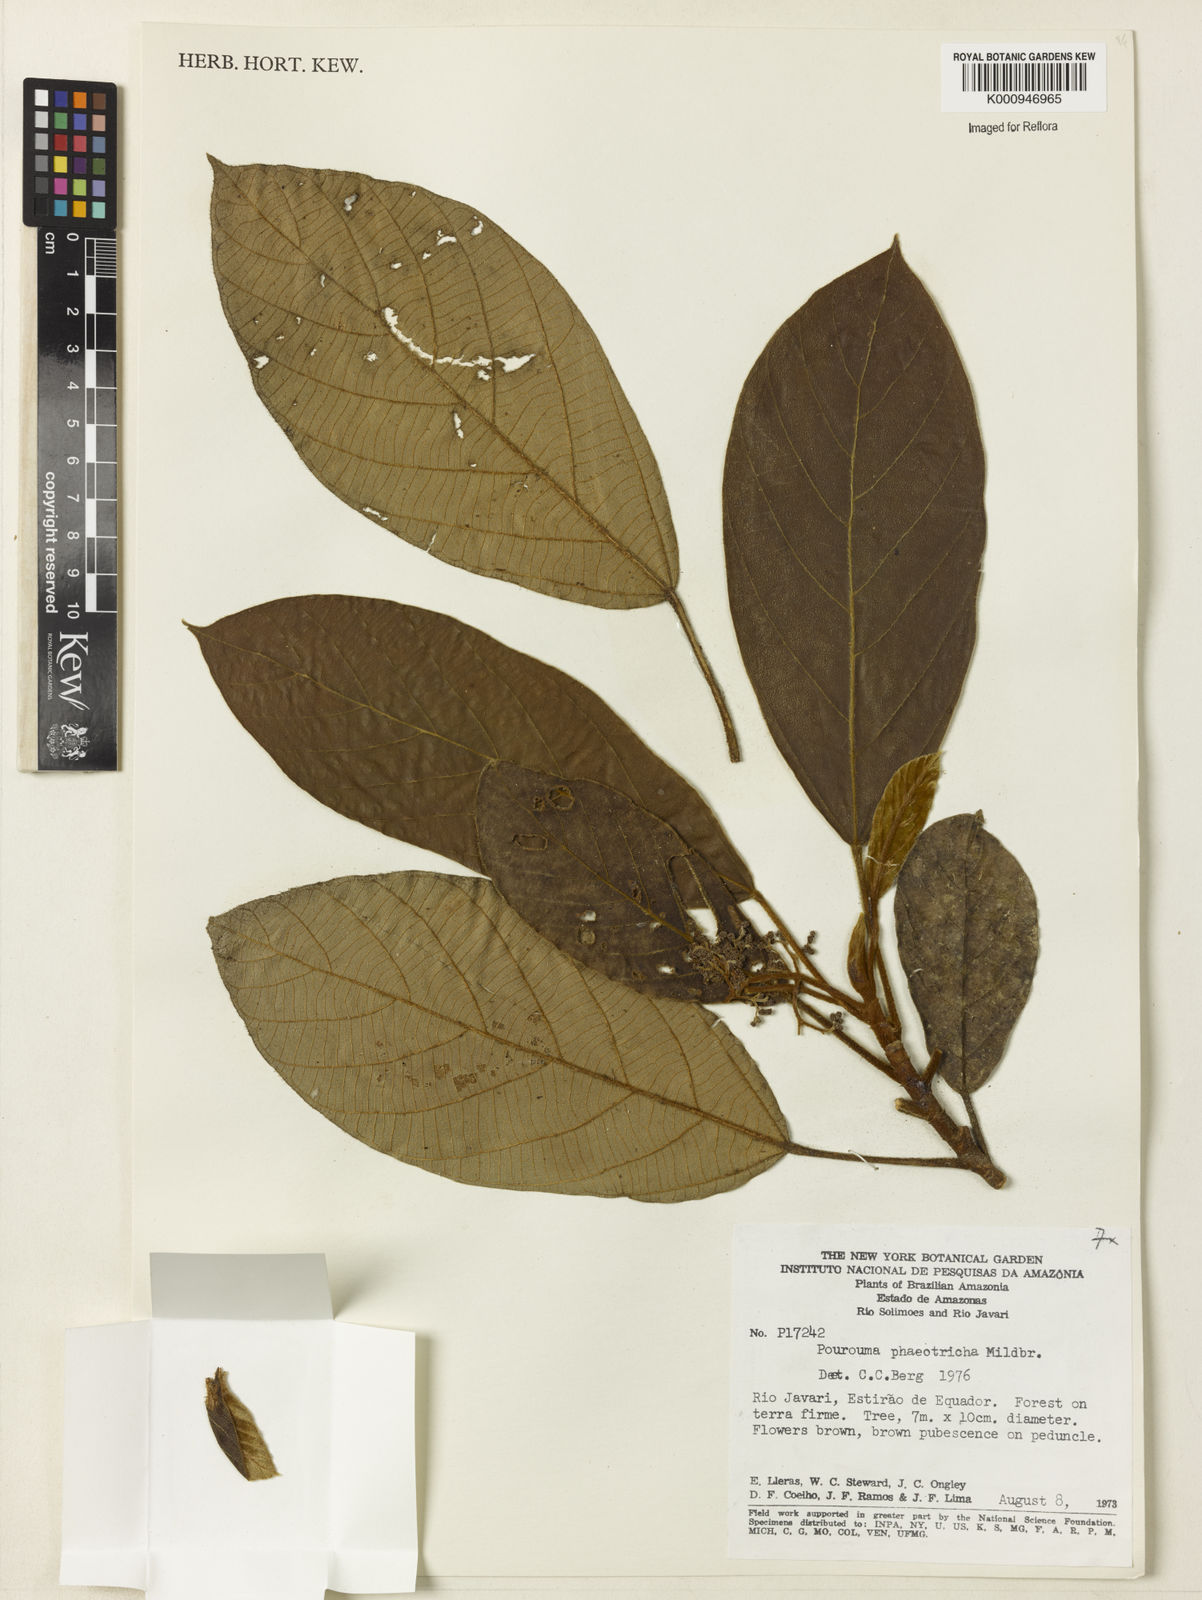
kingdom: Plantae
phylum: Tracheophyta
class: Magnoliopsida
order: Rosales
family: Urticaceae
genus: Pourouma
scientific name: Pourouma phaeotricha
